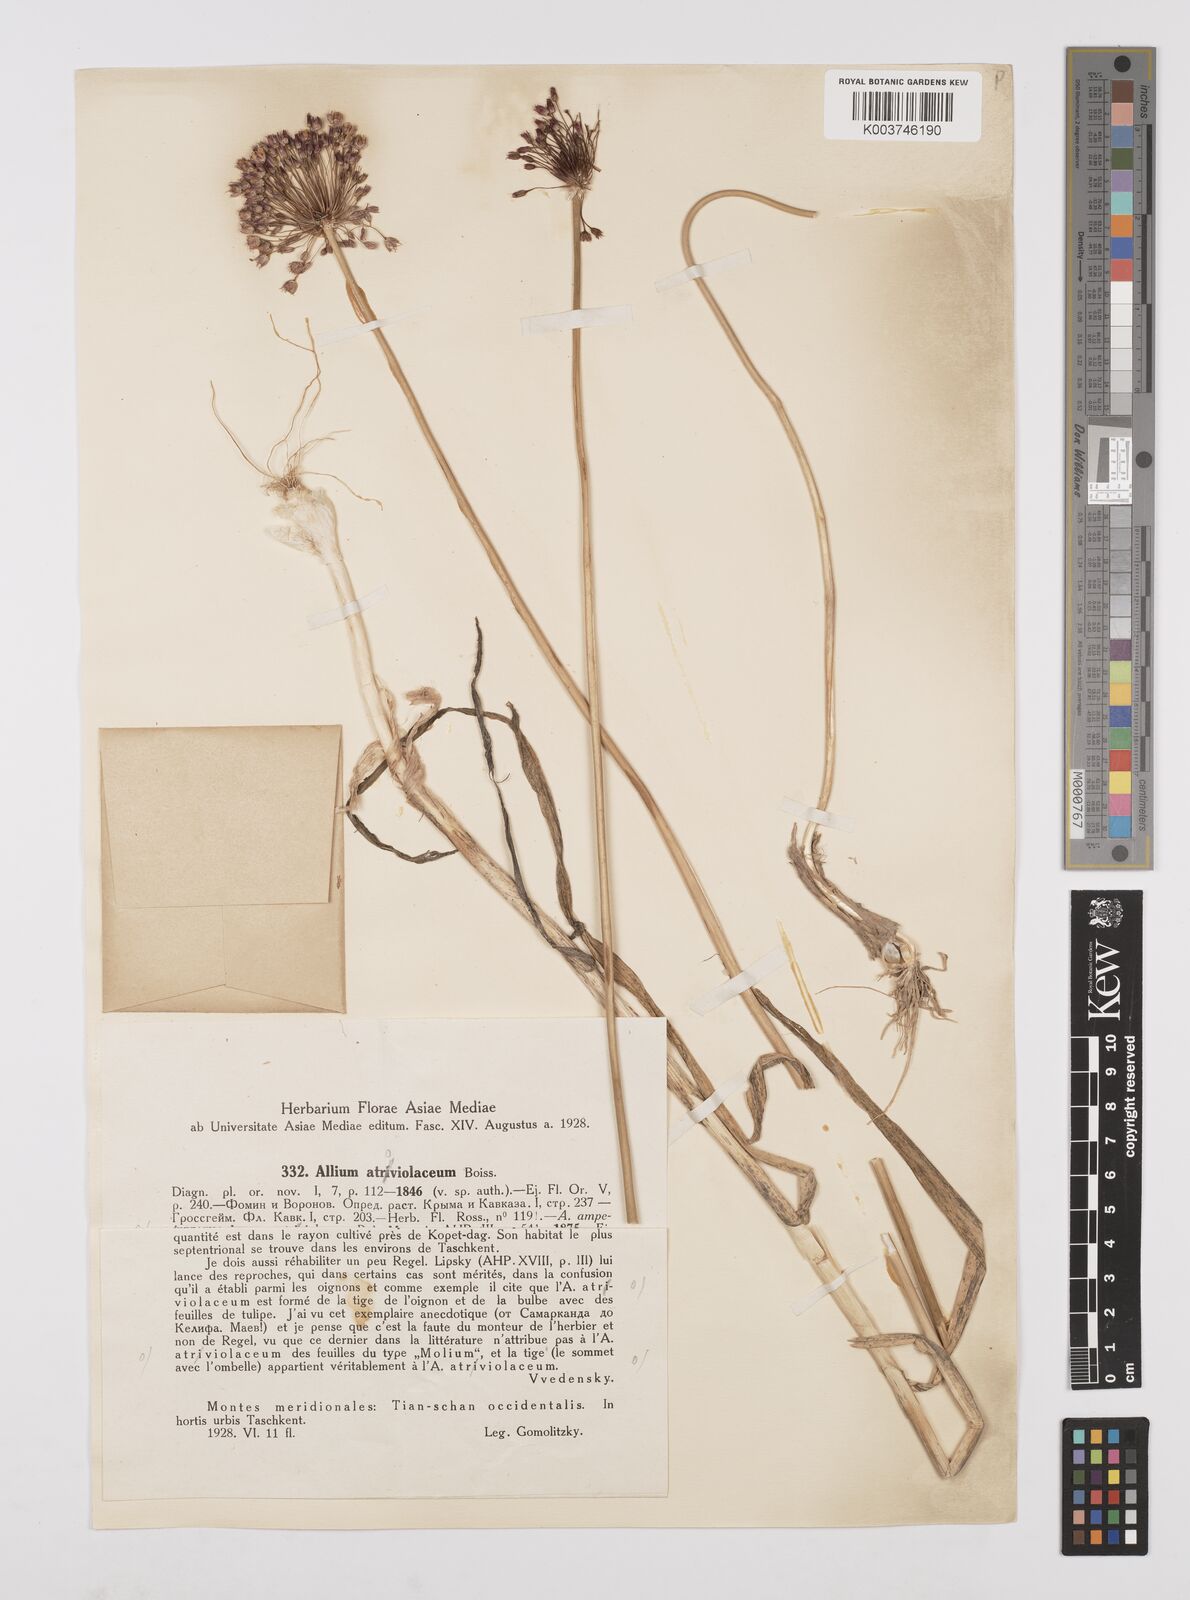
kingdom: Plantae
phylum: Tracheophyta
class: Liliopsida
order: Asparagales
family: Amaryllidaceae
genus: Allium
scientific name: Allium atroviolaceum
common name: Broadleaf wild leek
